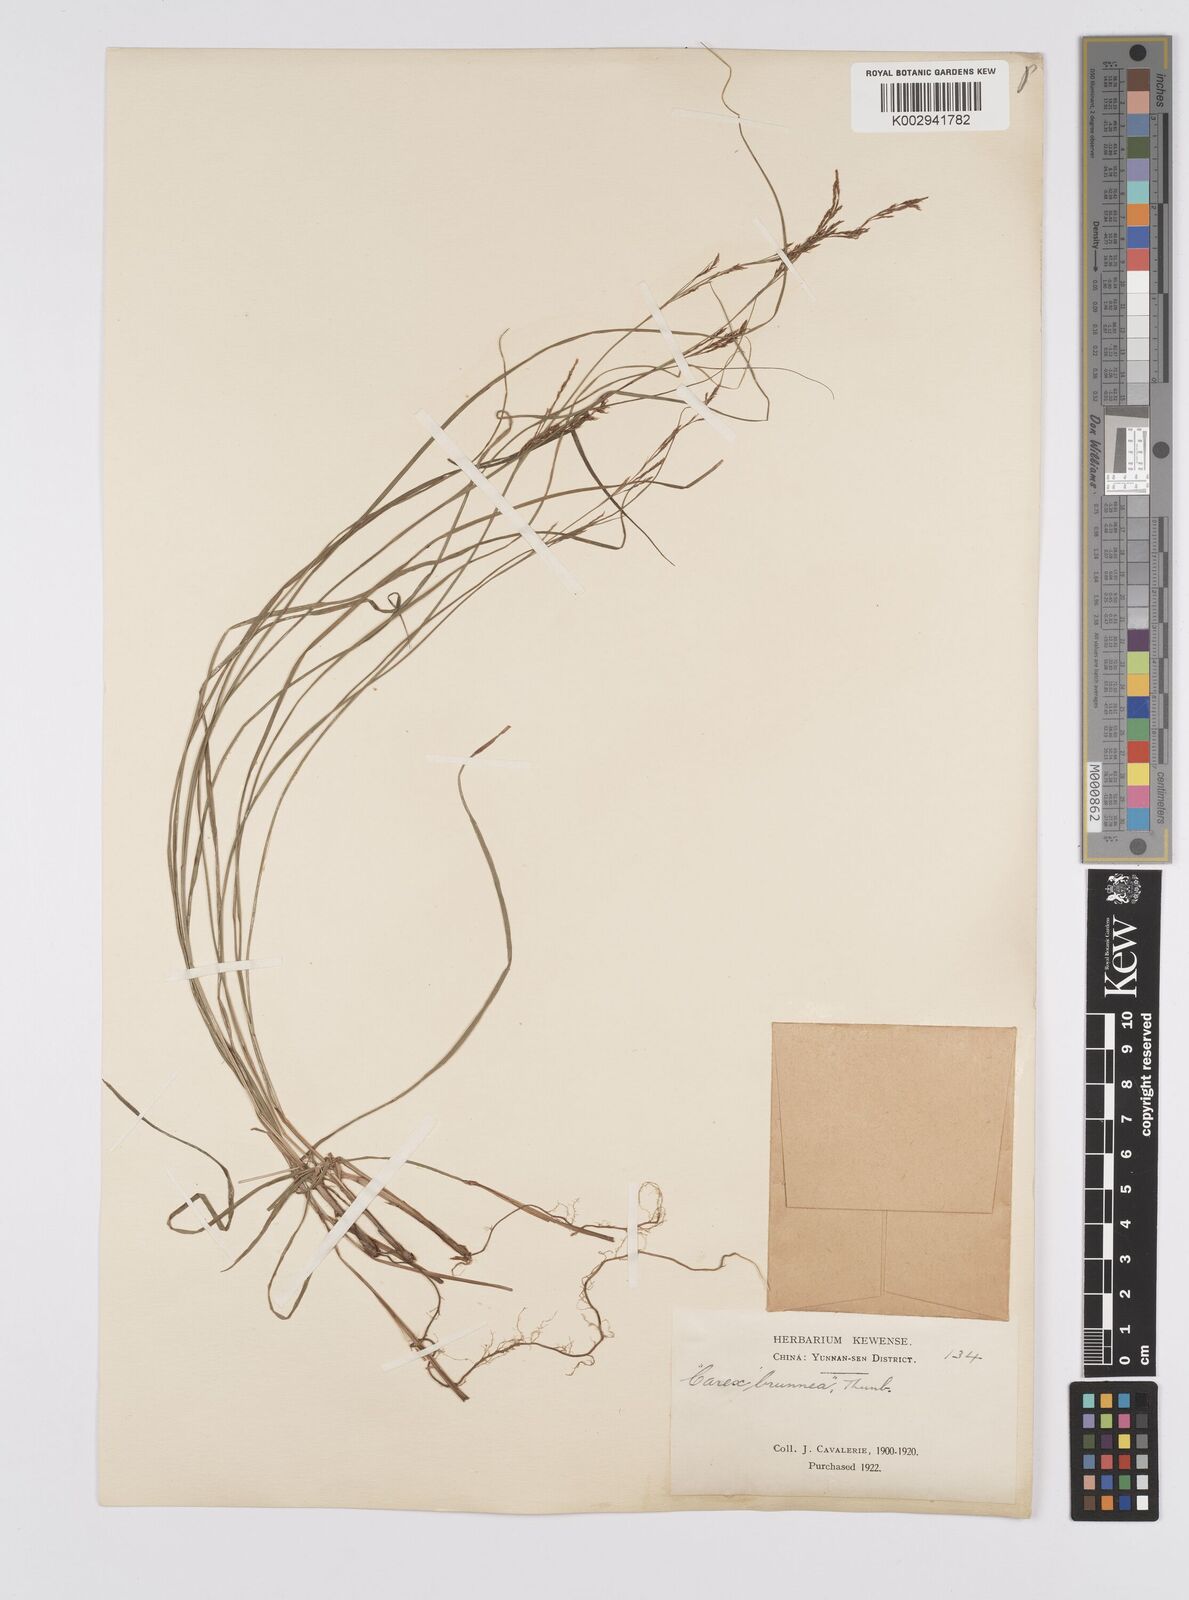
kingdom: Plantae
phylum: Tracheophyta
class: Liliopsida
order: Poales
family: Cyperaceae
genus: Carex
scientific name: Carex brunnea
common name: Greater brown sedge
